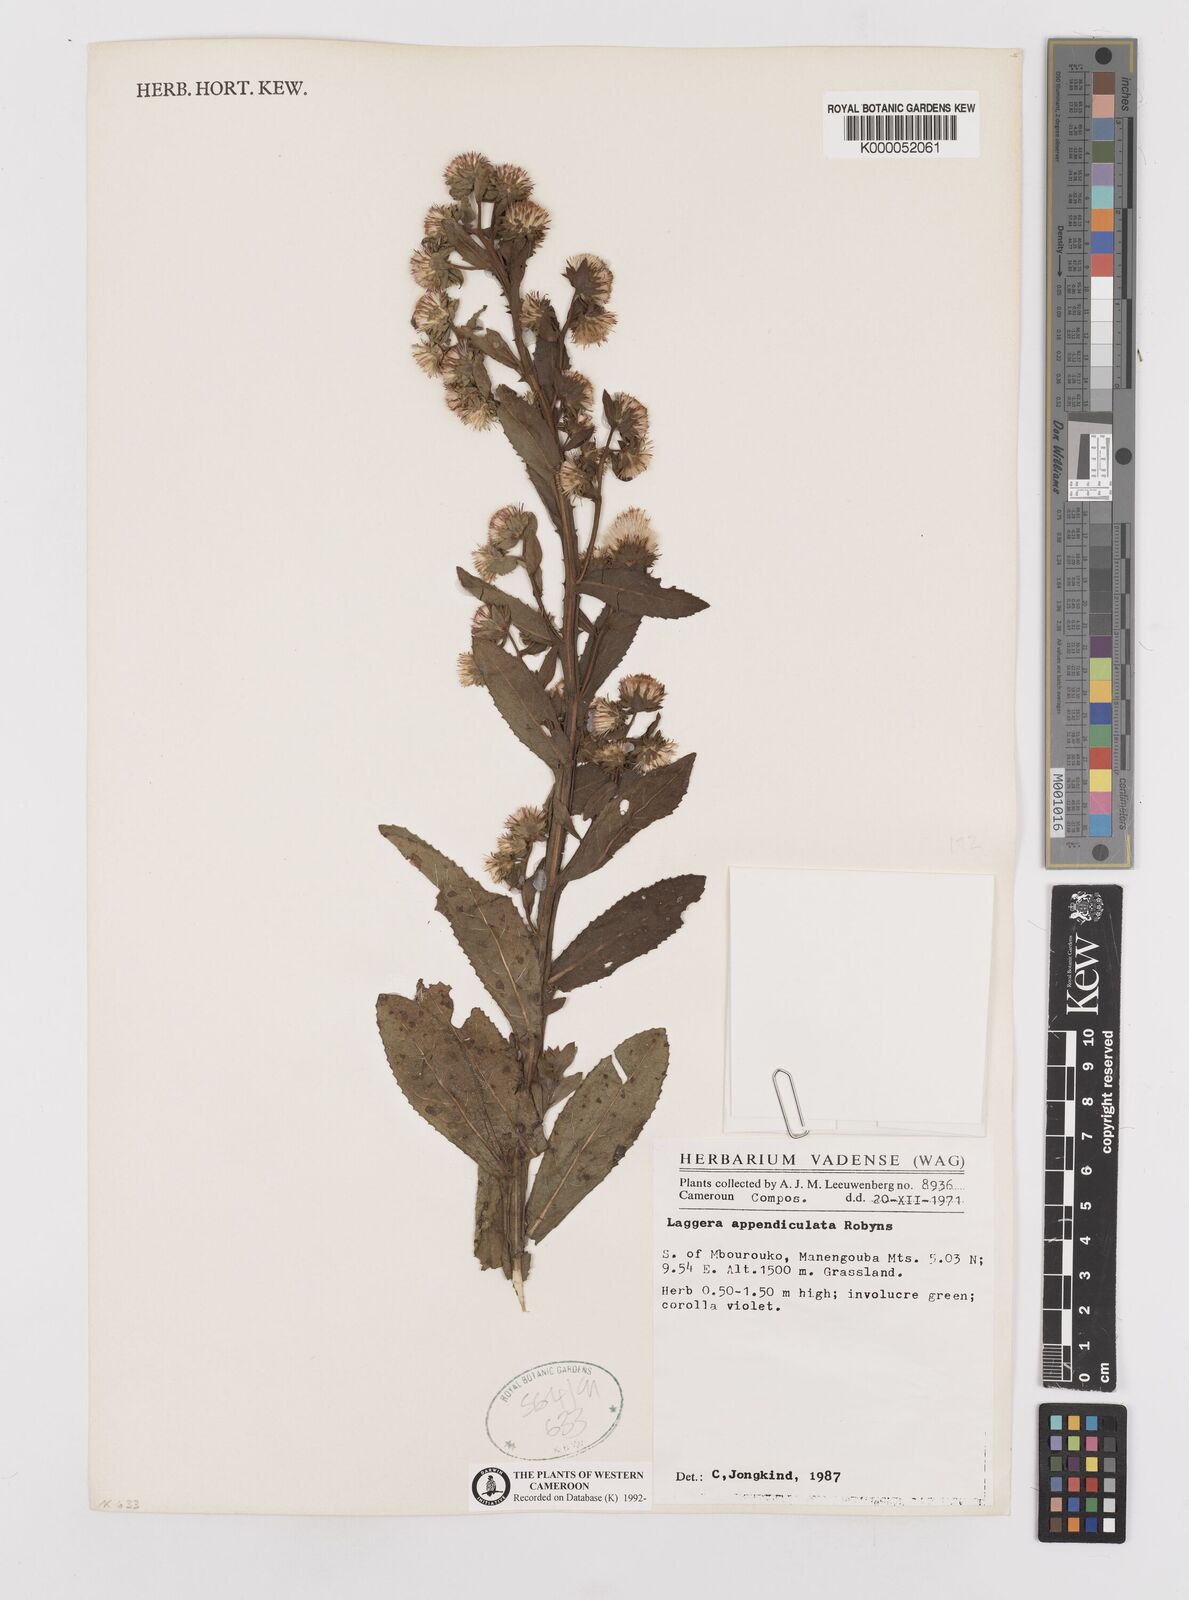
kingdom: Plantae
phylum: Tracheophyta
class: Magnoliopsida
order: Asterales
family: Asteraceae
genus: Laggera
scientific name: Laggera
